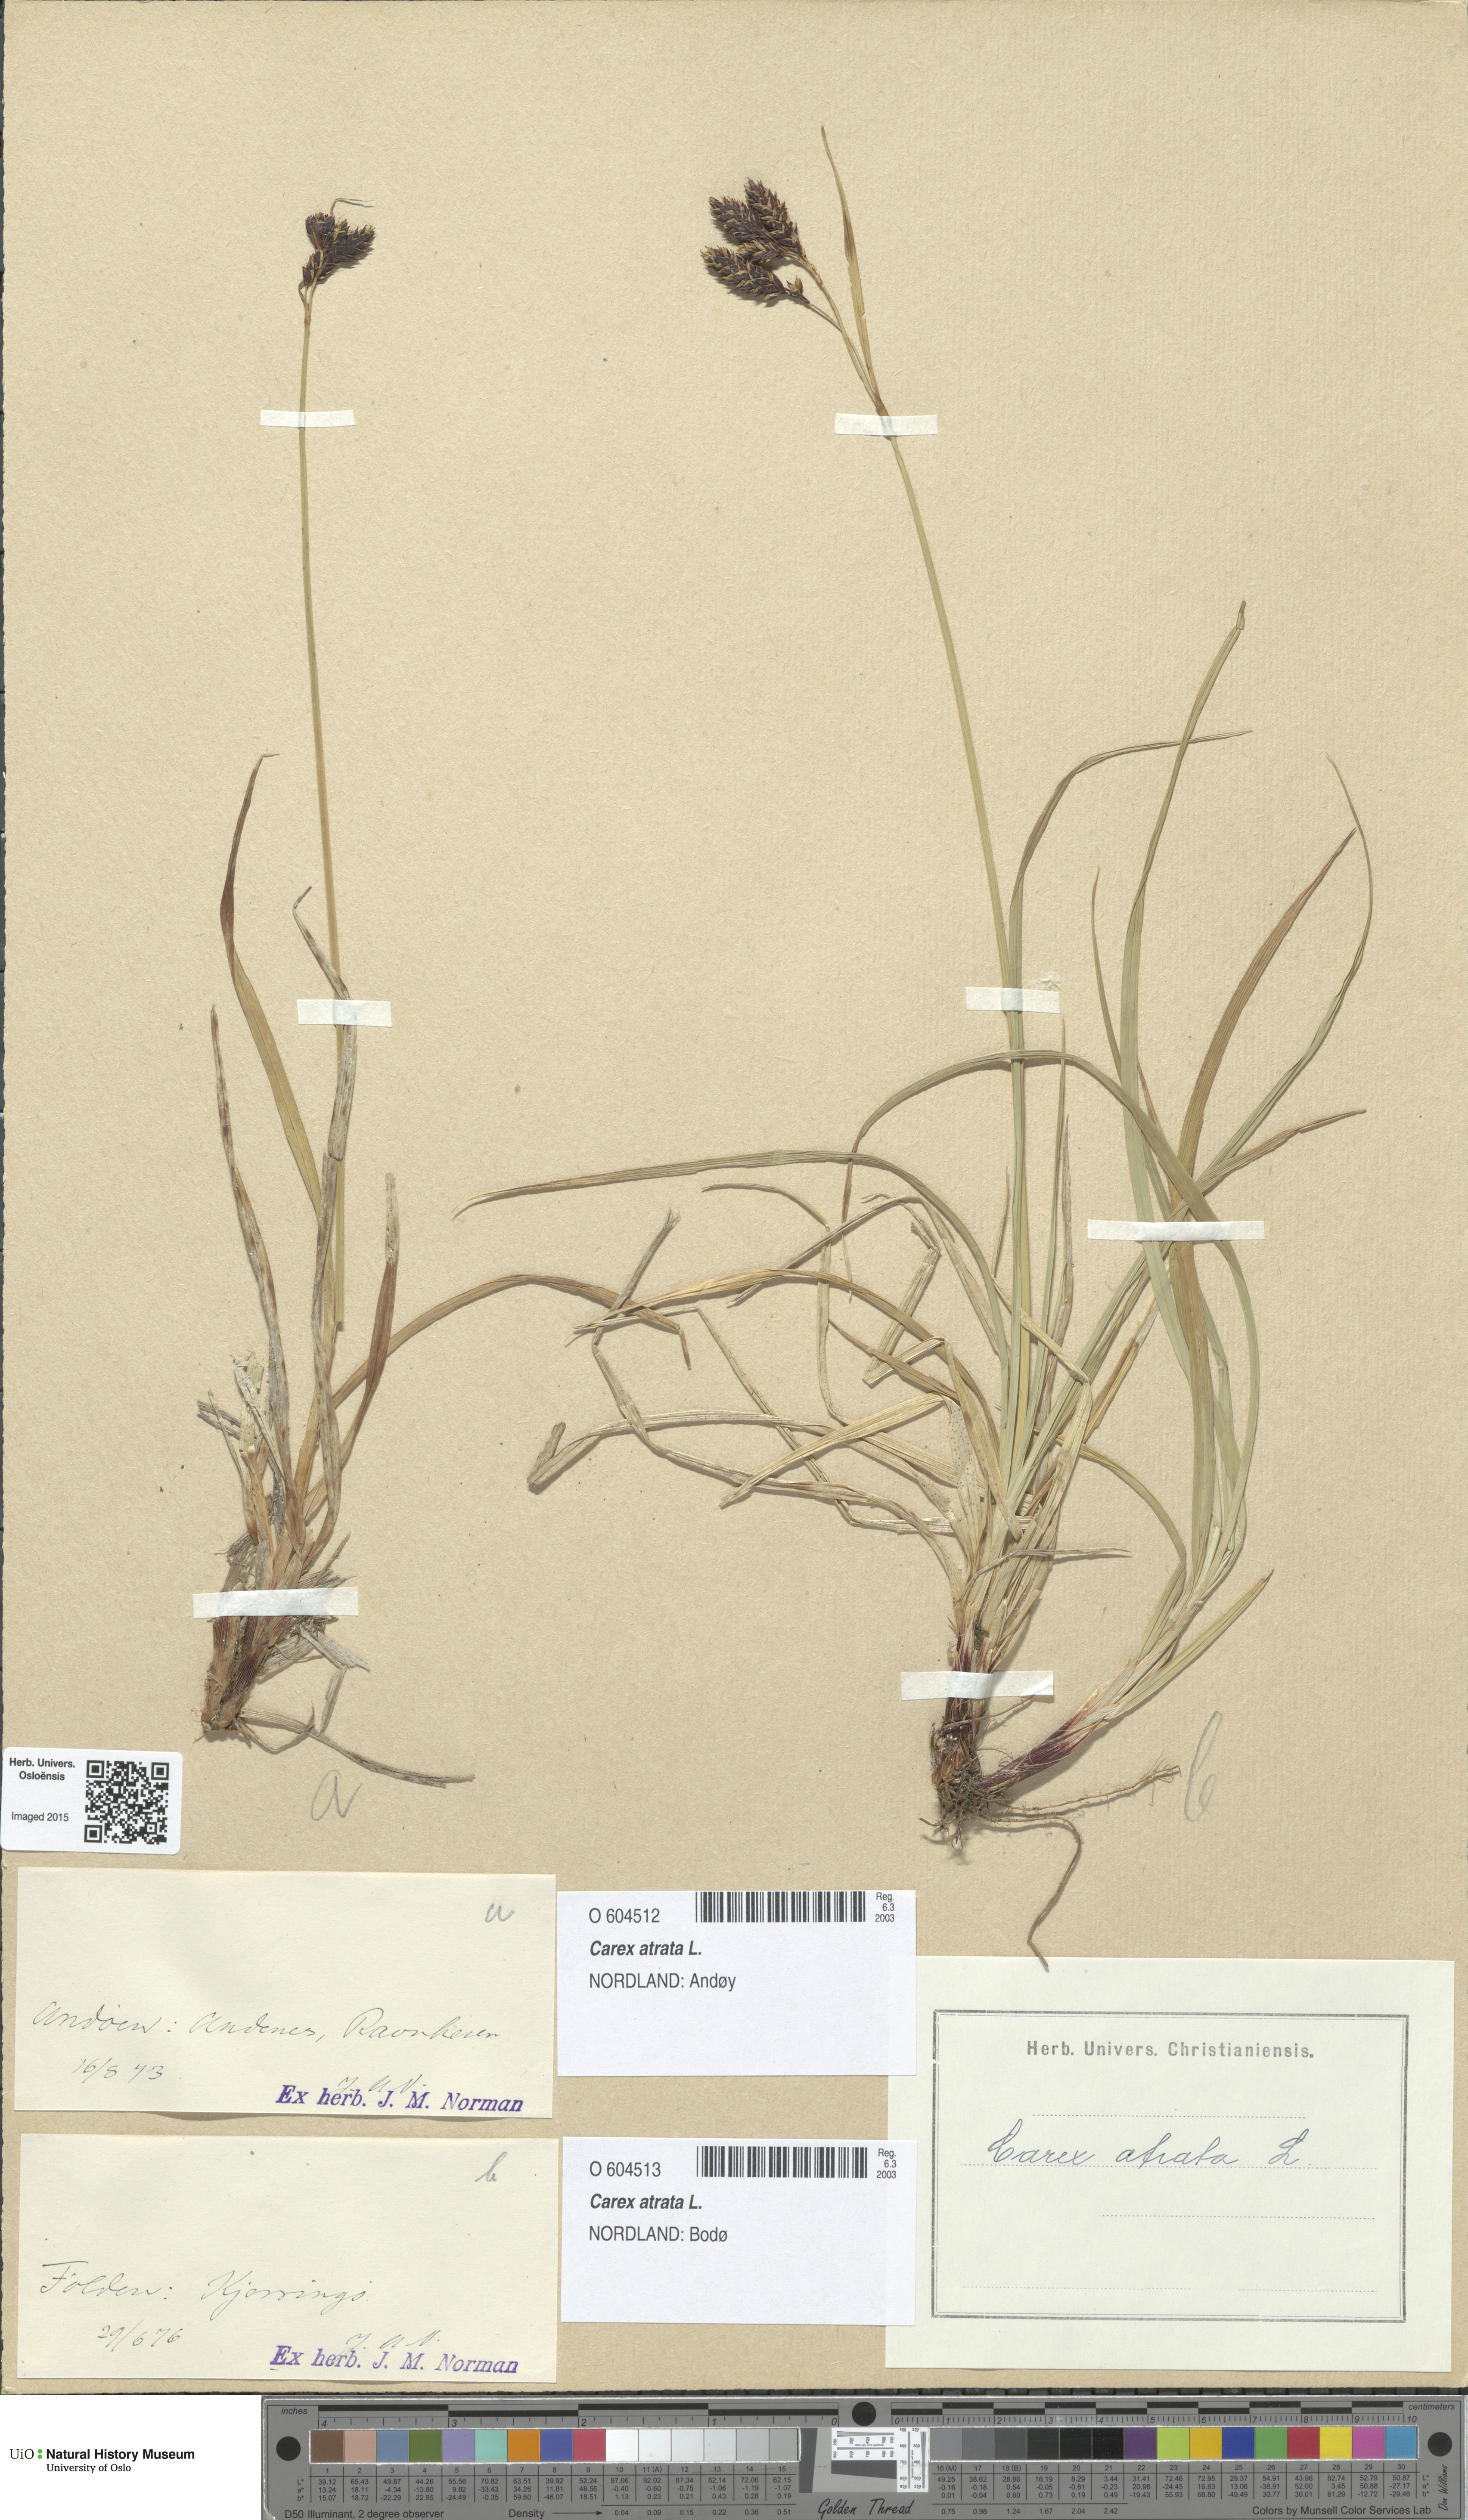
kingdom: Plantae
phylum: Tracheophyta
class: Liliopsida
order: Poales
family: Cyperaceae
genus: Carex
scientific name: Carex atrata
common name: Black alpine sedge
